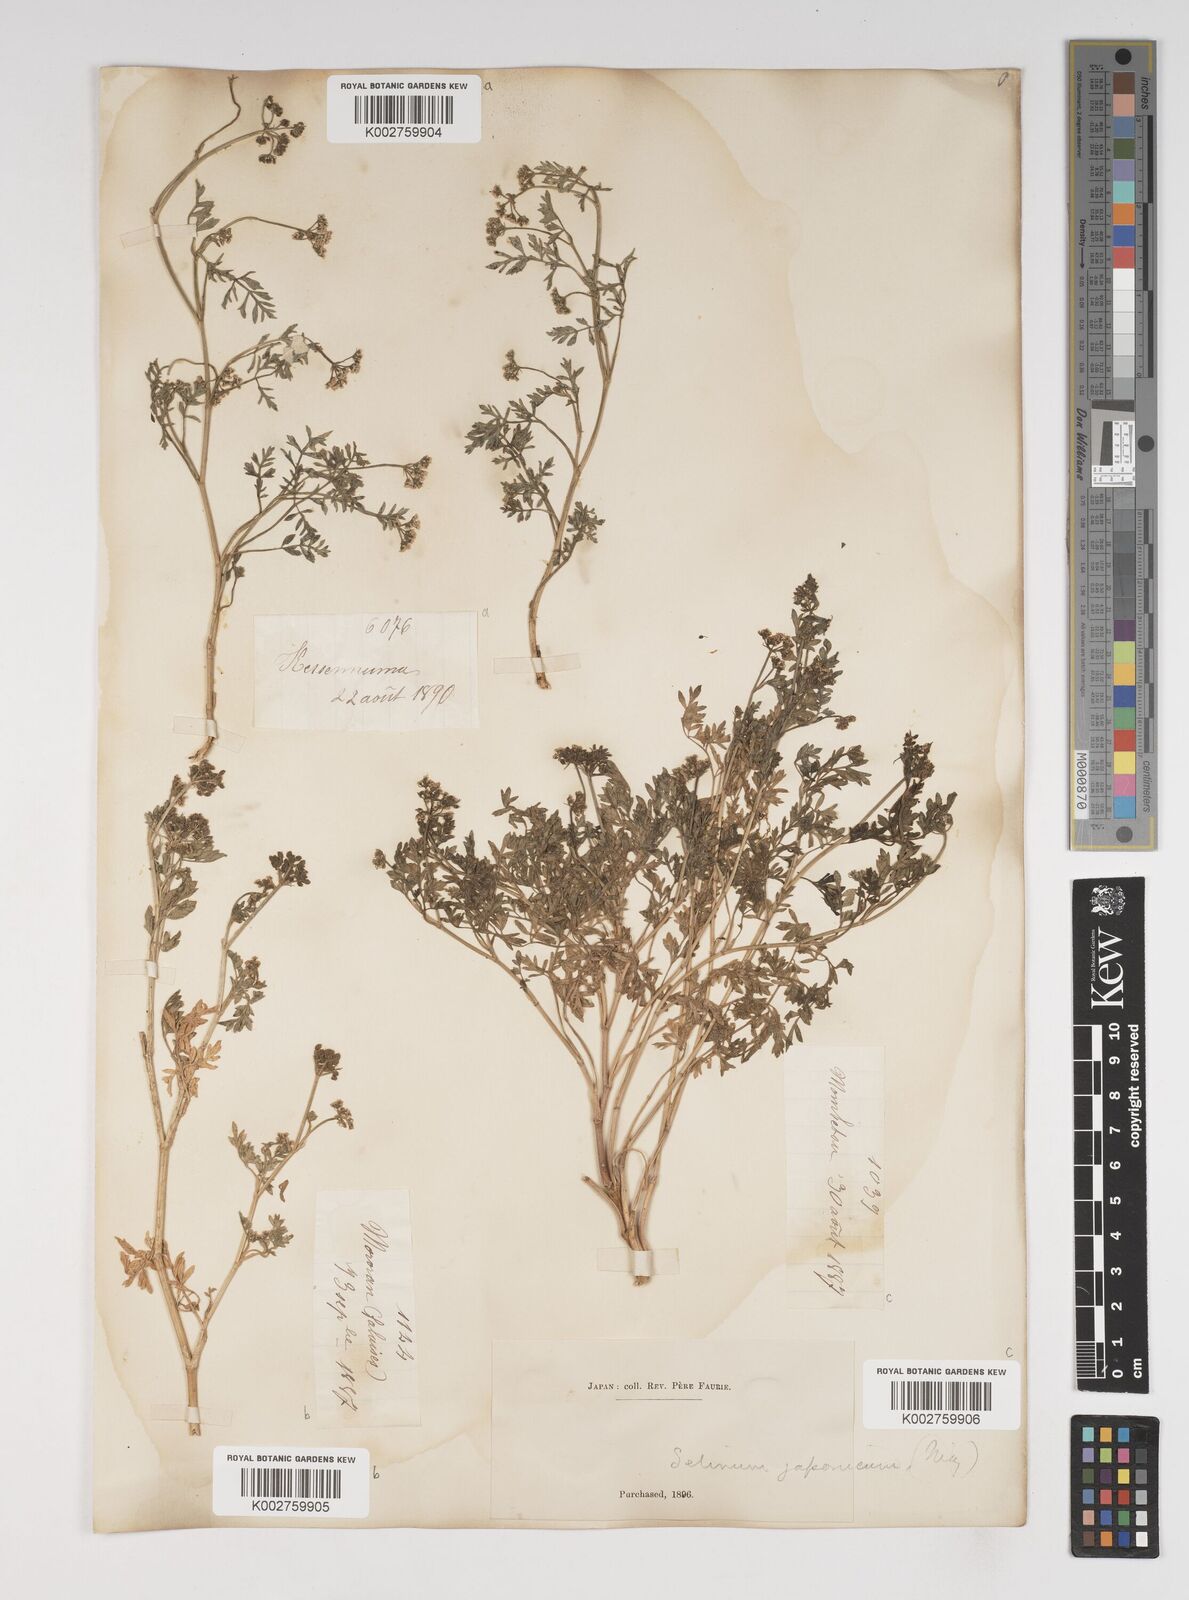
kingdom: Plantae
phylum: Tracheophyta
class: Magnoliopsida
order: Apiales
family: Apiaceae
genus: Cnidium
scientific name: Cnidium japonicum
